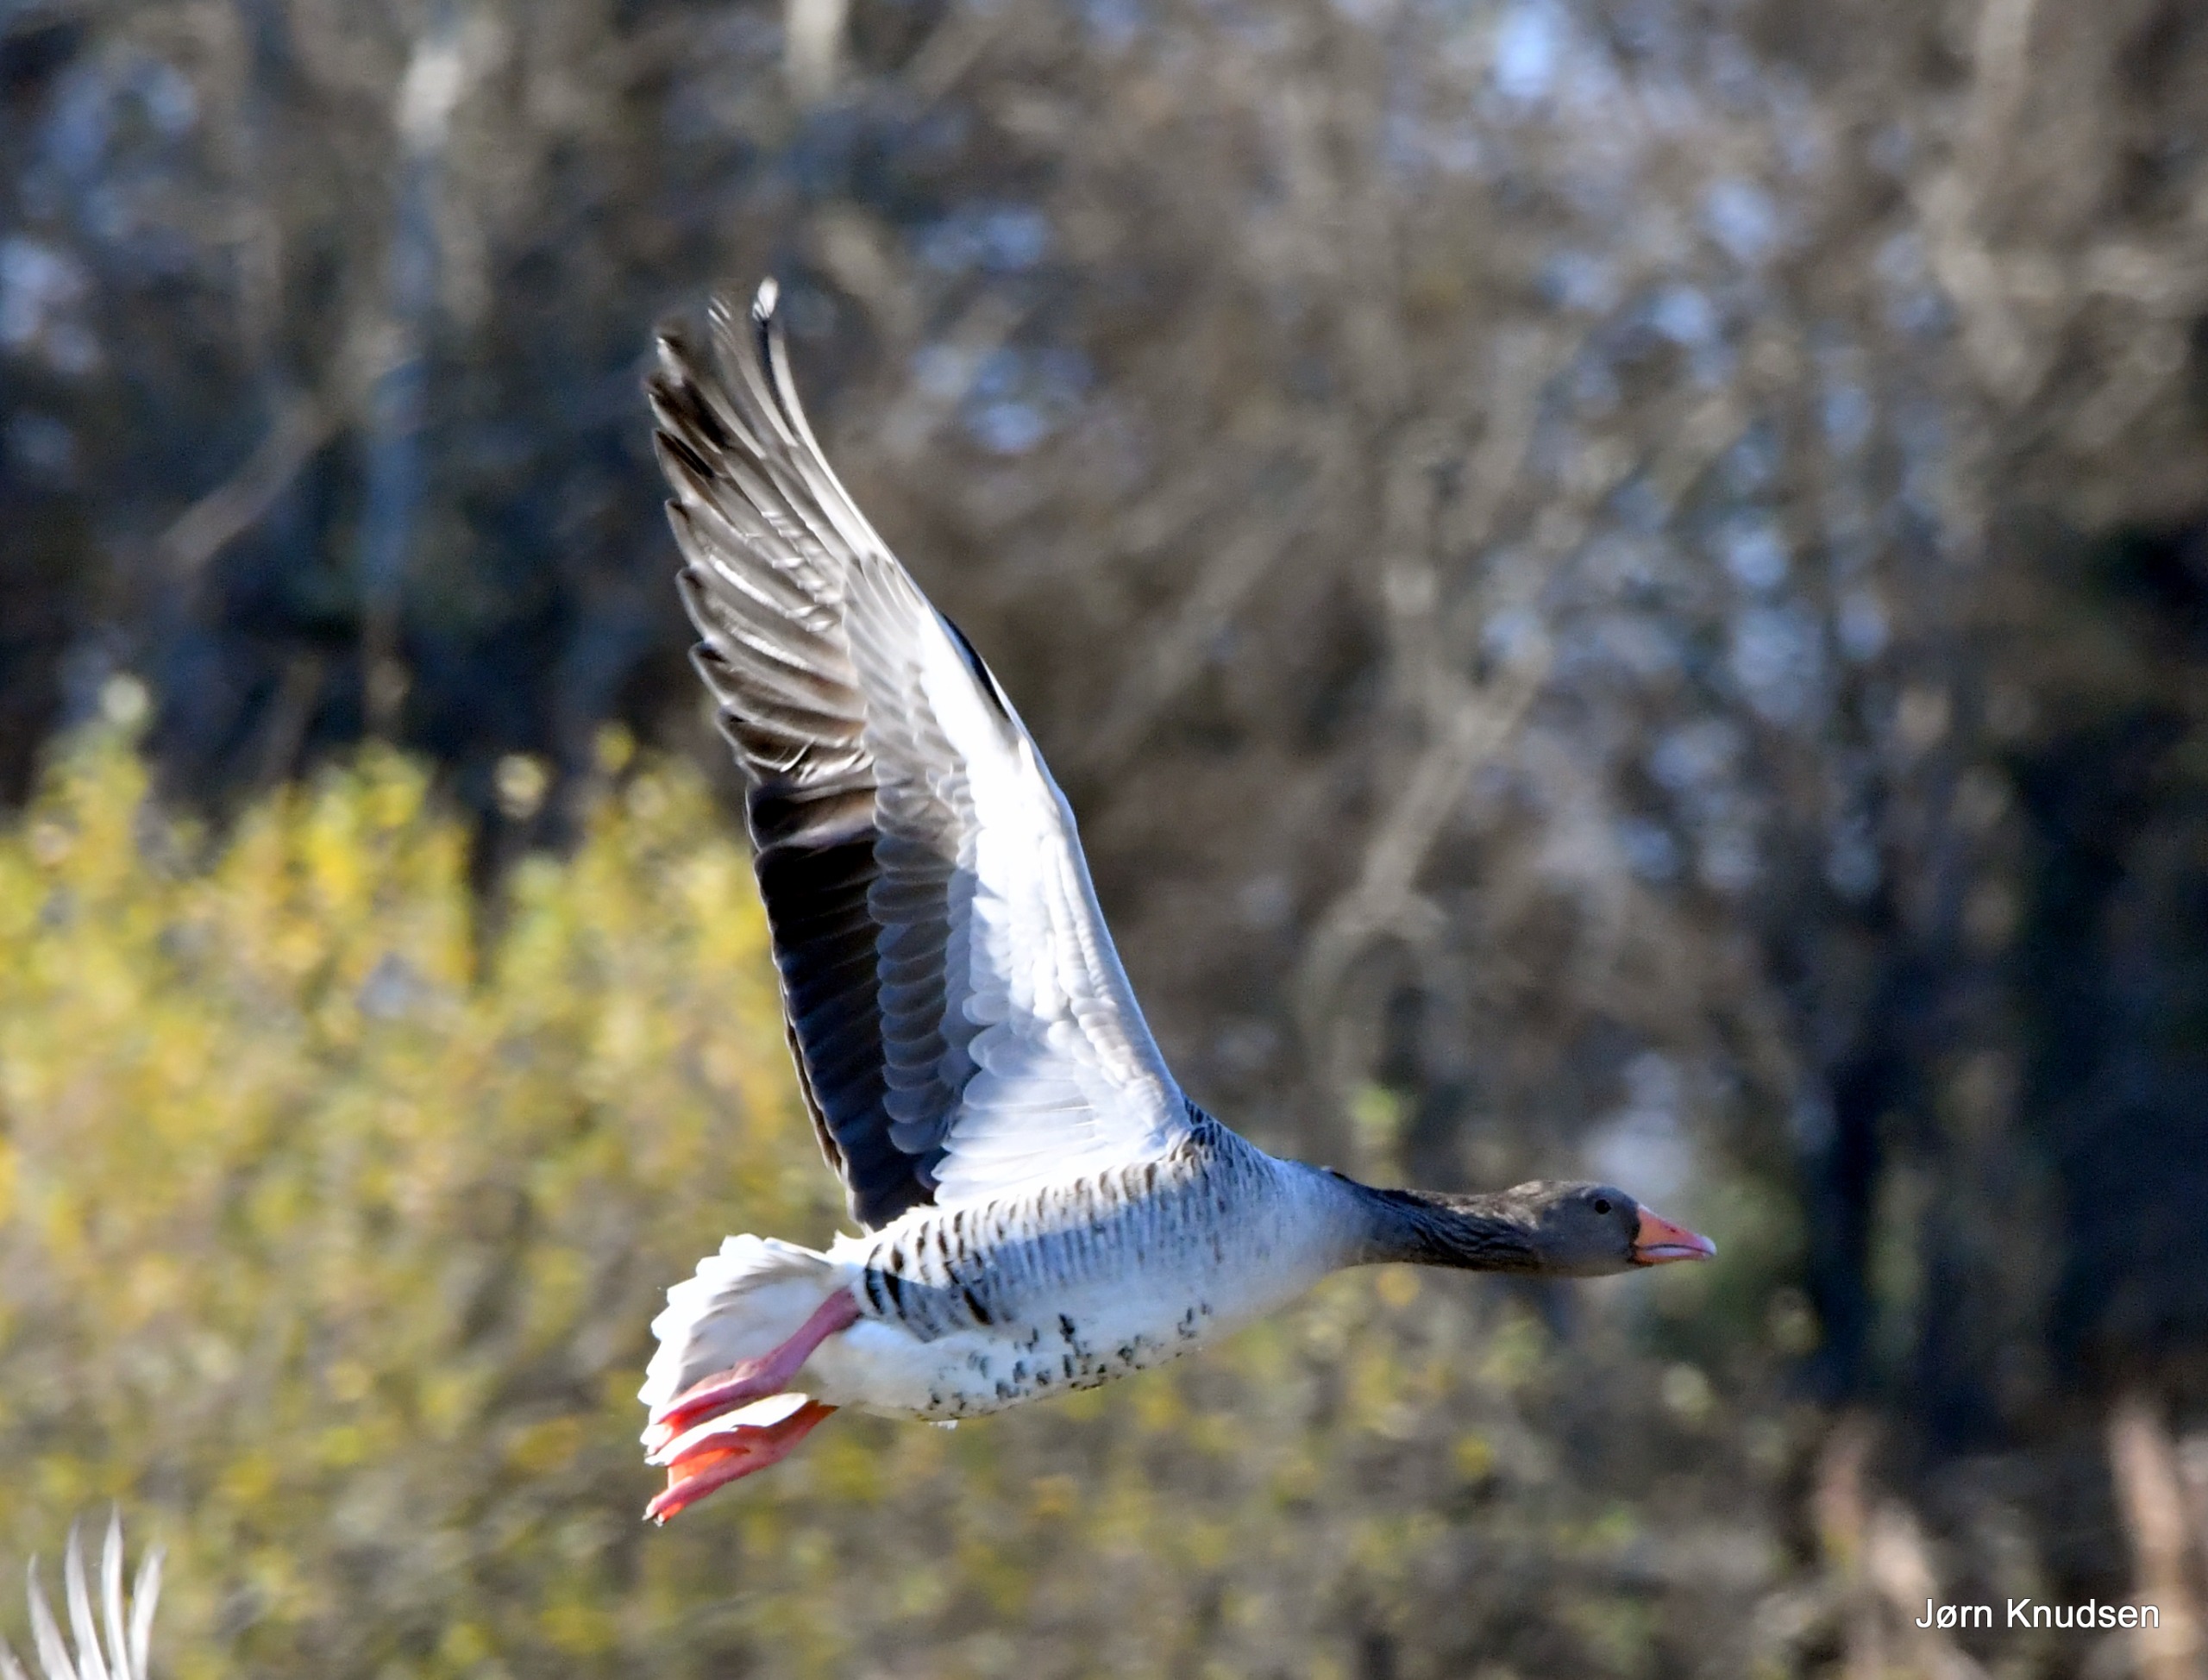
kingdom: Animalia
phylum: Chordata
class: Aves
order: Anseriformes
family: Anatidae
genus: Anser
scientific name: Anser anser
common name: Grågås
